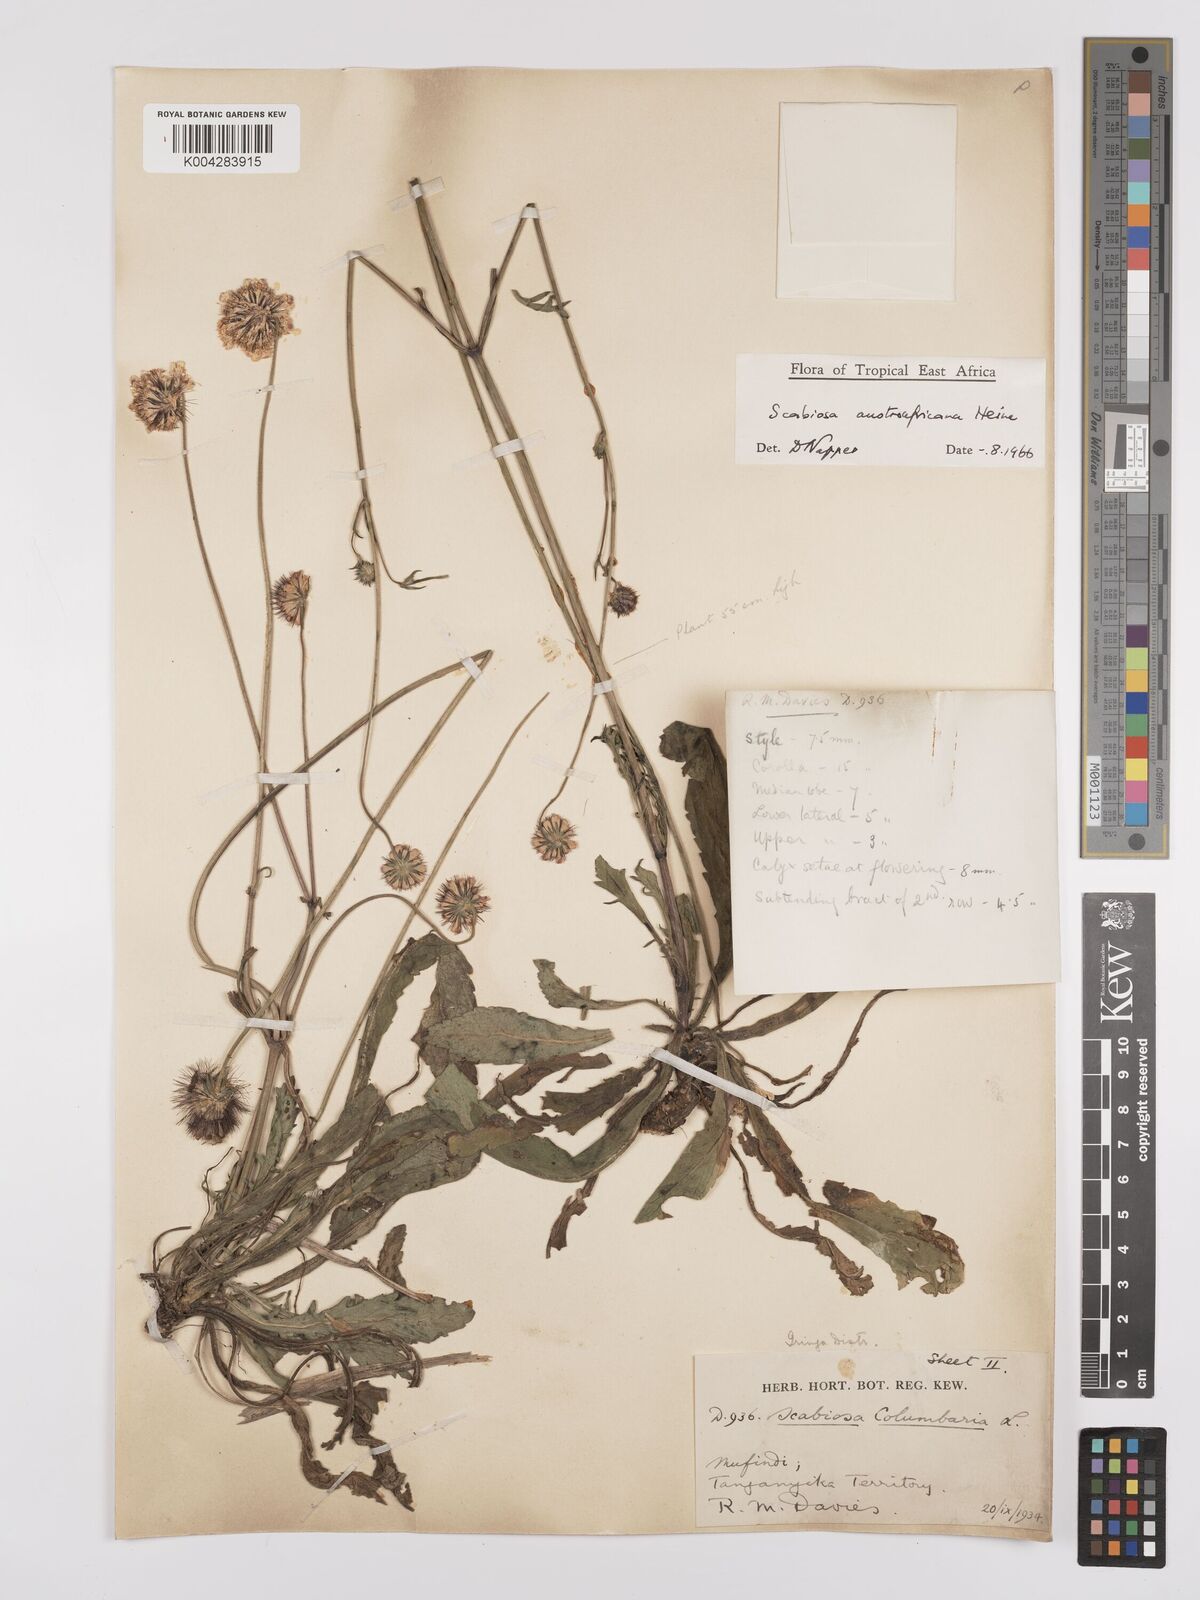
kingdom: Plantae
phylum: Tracheophyta
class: Magnoliopsida
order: Dipsacales
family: Caprifoliaceae
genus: Scabiosa
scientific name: Scabiosa austroafricana
